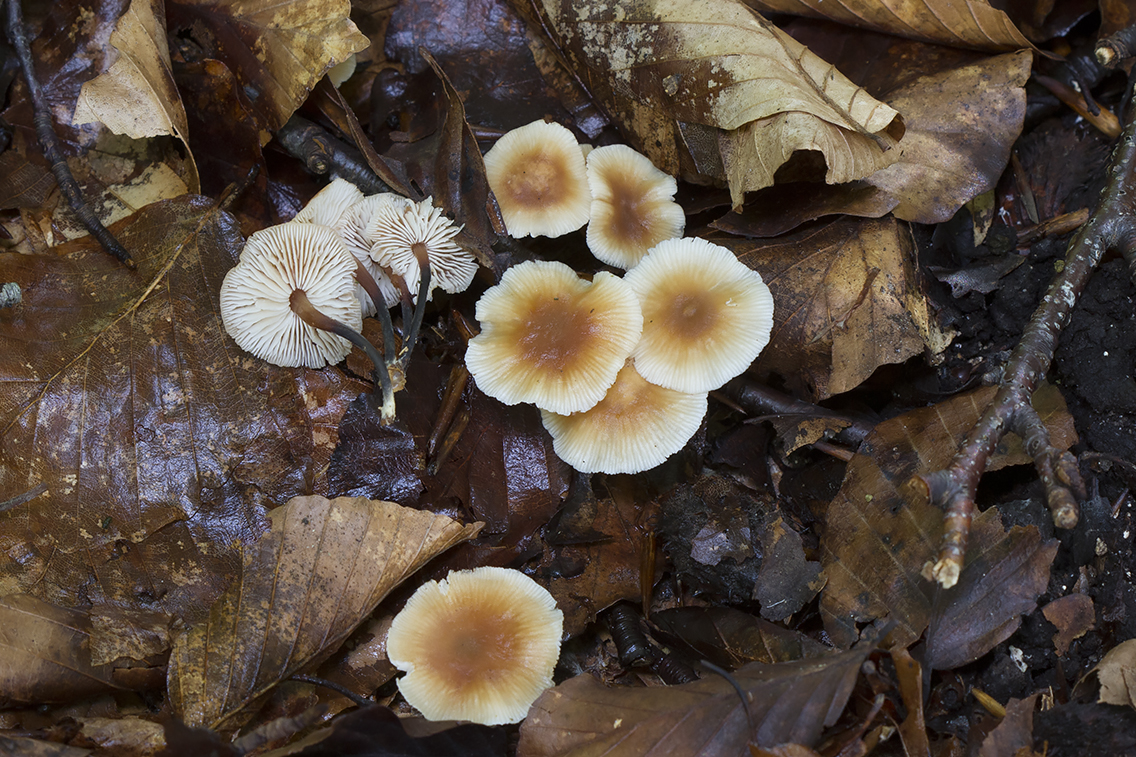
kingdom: Fungi
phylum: Basidiomycota
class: Agaricomycetes
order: Agaricales
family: Omphalotaceae
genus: Gymnopus
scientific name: Gymnopus brassicolens
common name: kål-fladhat
